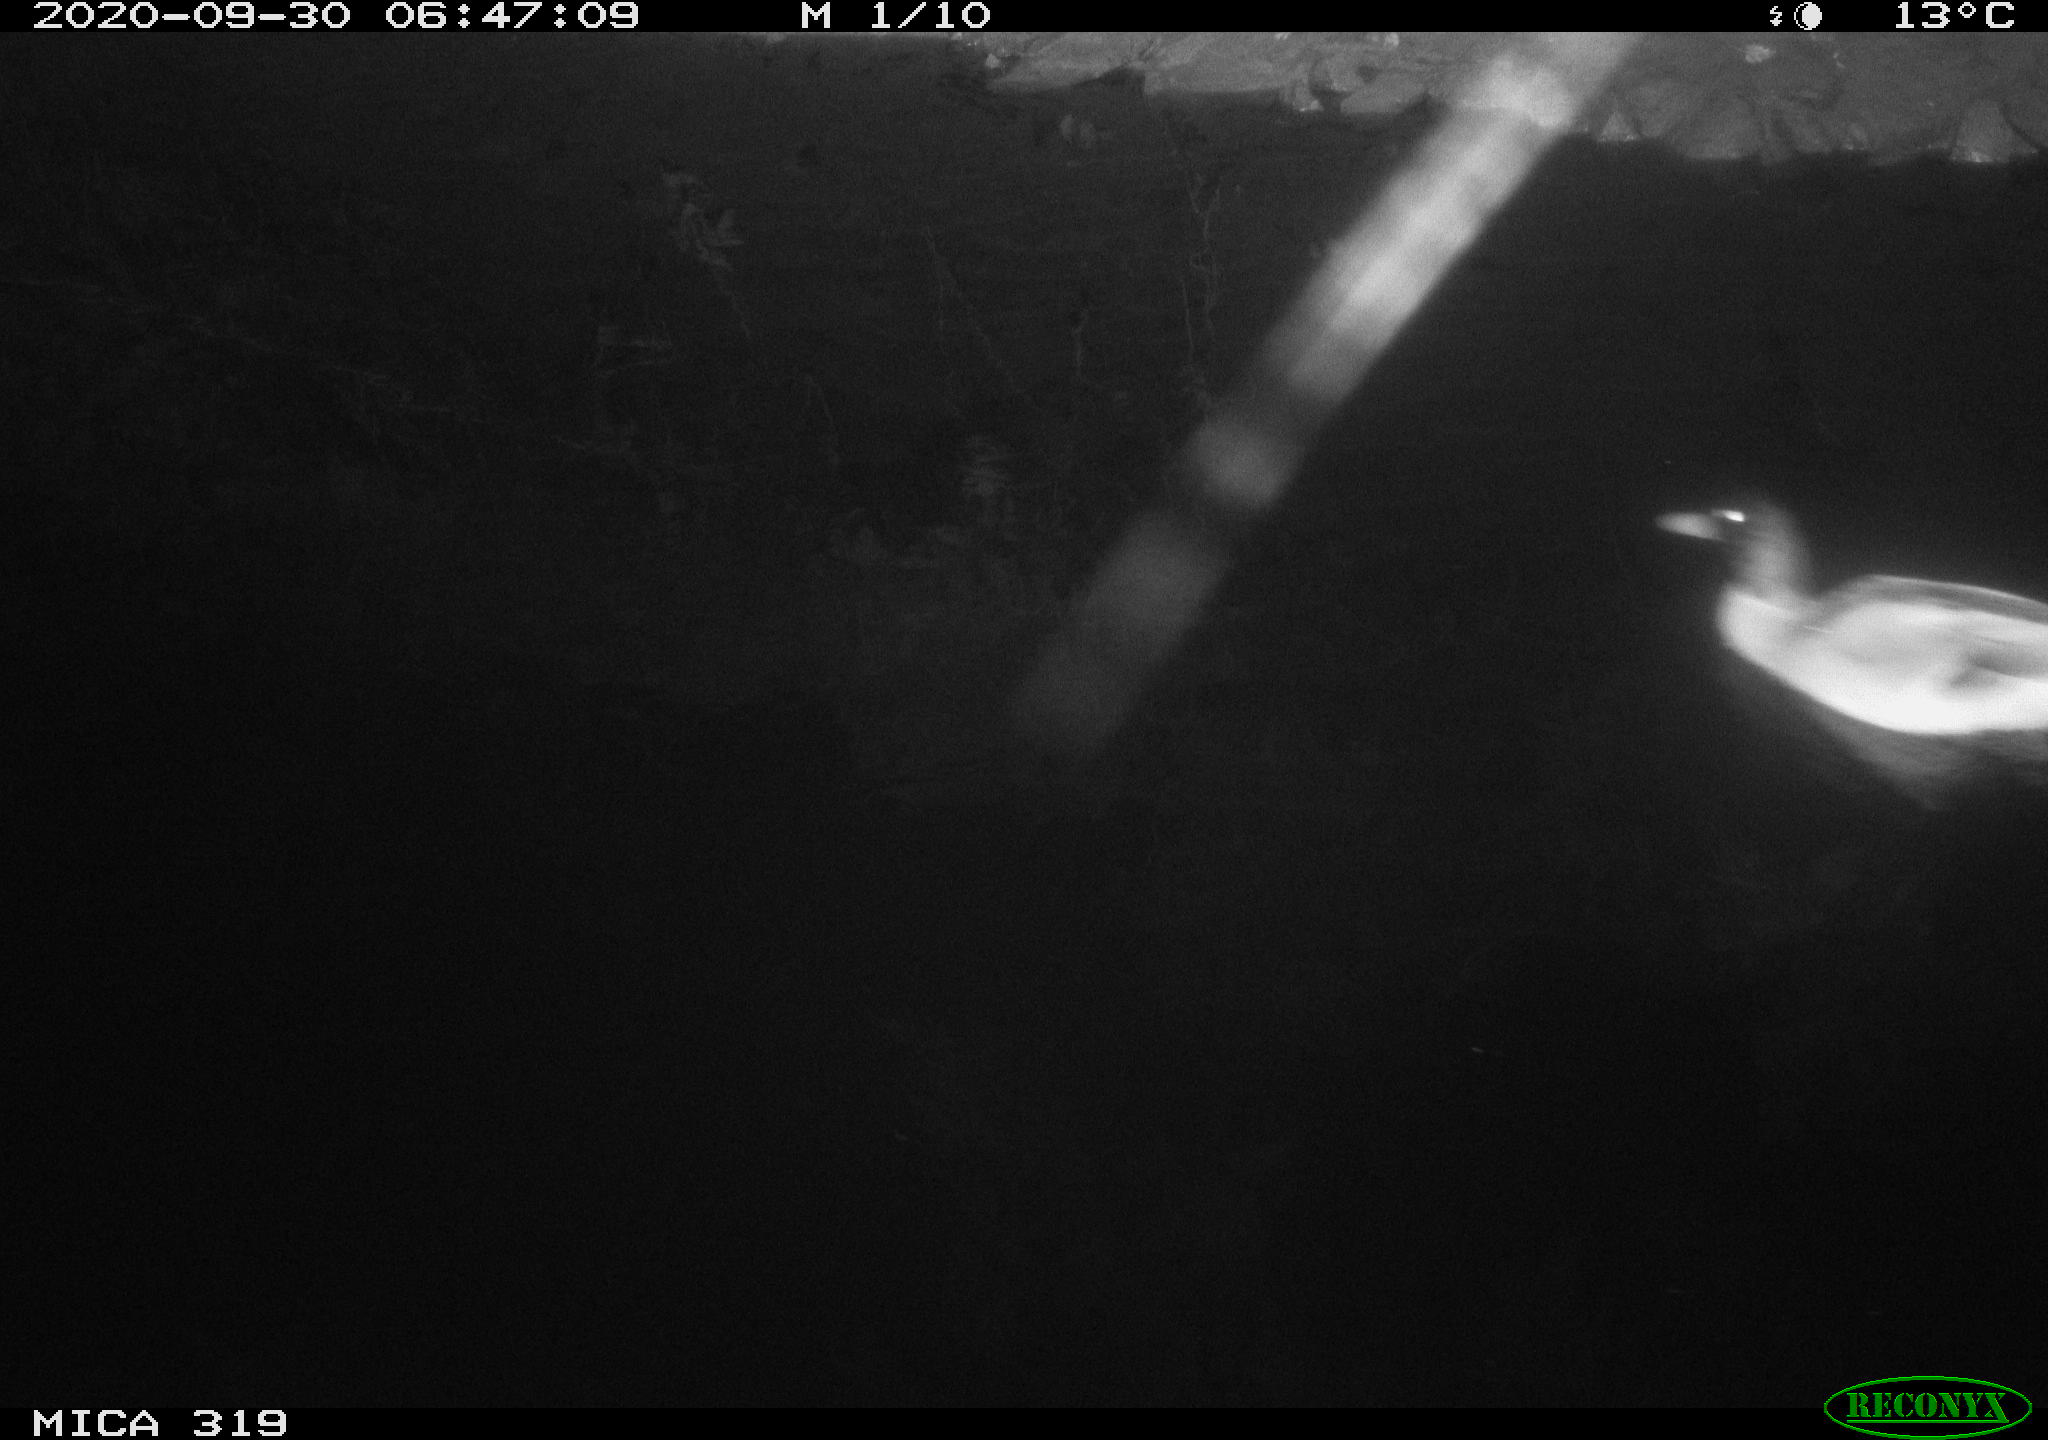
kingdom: Animalia
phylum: Chordata
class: Aves
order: Anseriformes
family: Anatidae
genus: Anas
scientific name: Anas platyrhynchos
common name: Mallard
